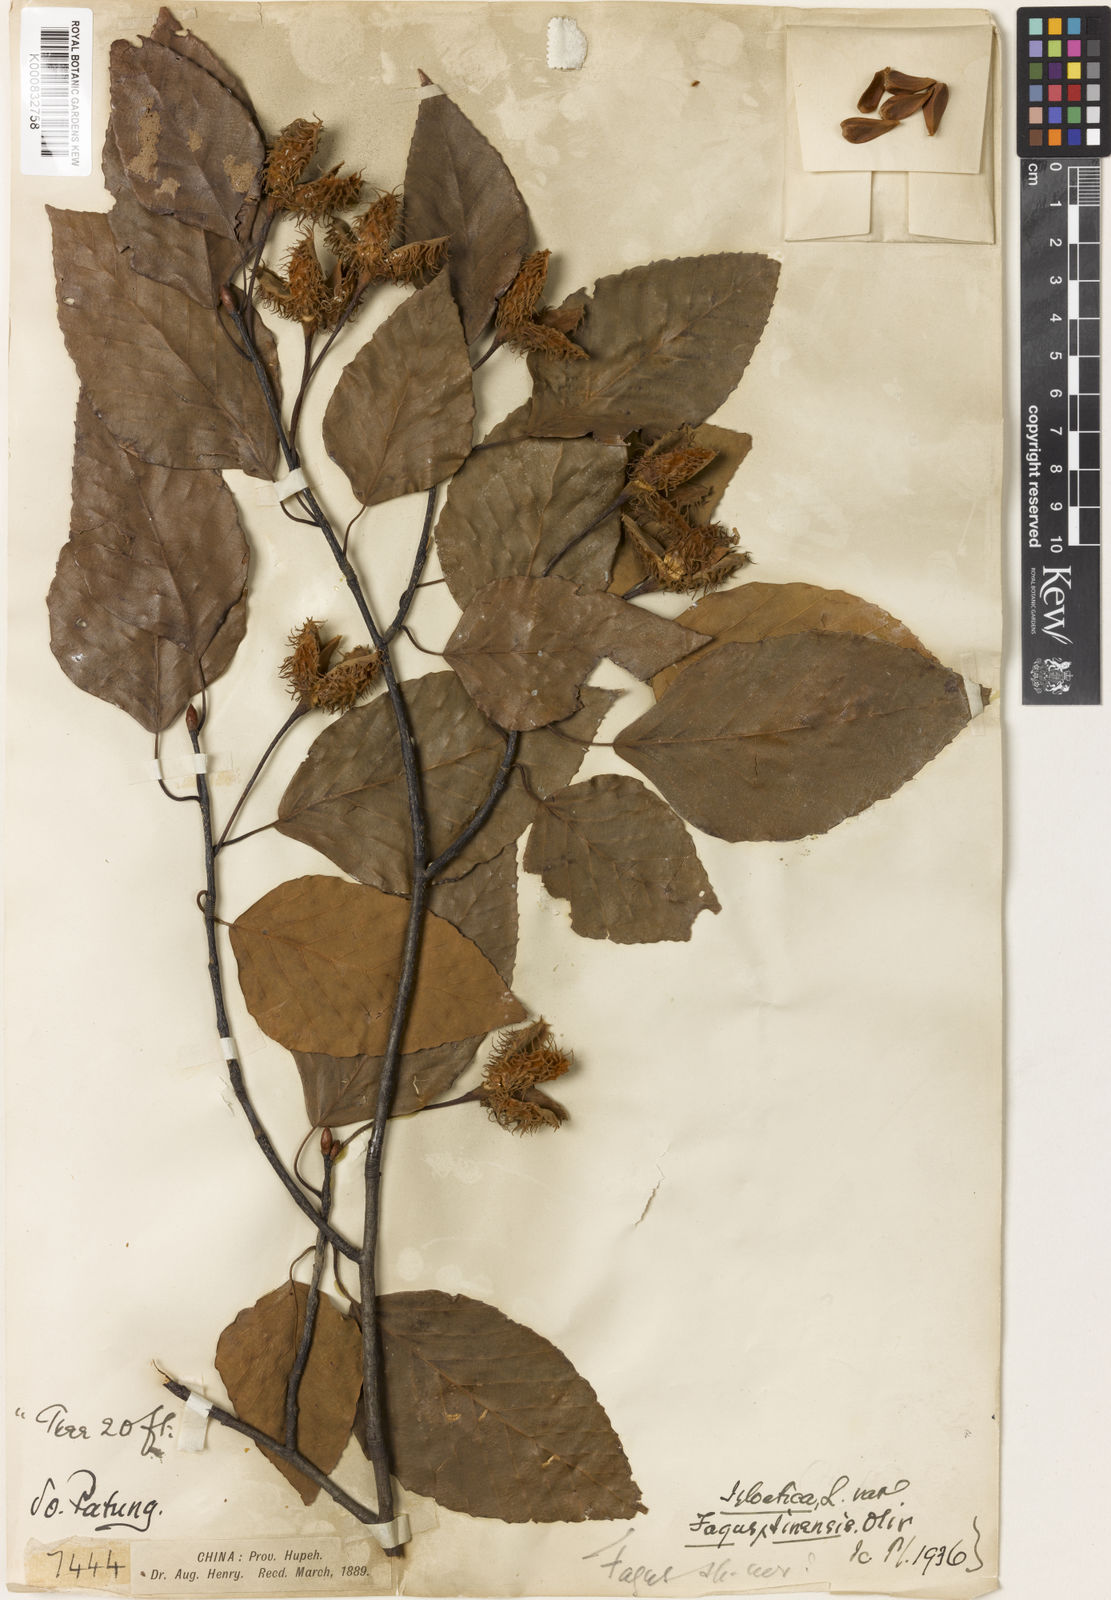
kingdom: Plantae
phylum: Tracheophyta
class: Magnoliopsida
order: Fagales
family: Fagaceae
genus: Fagus
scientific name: Fagus sinensis
